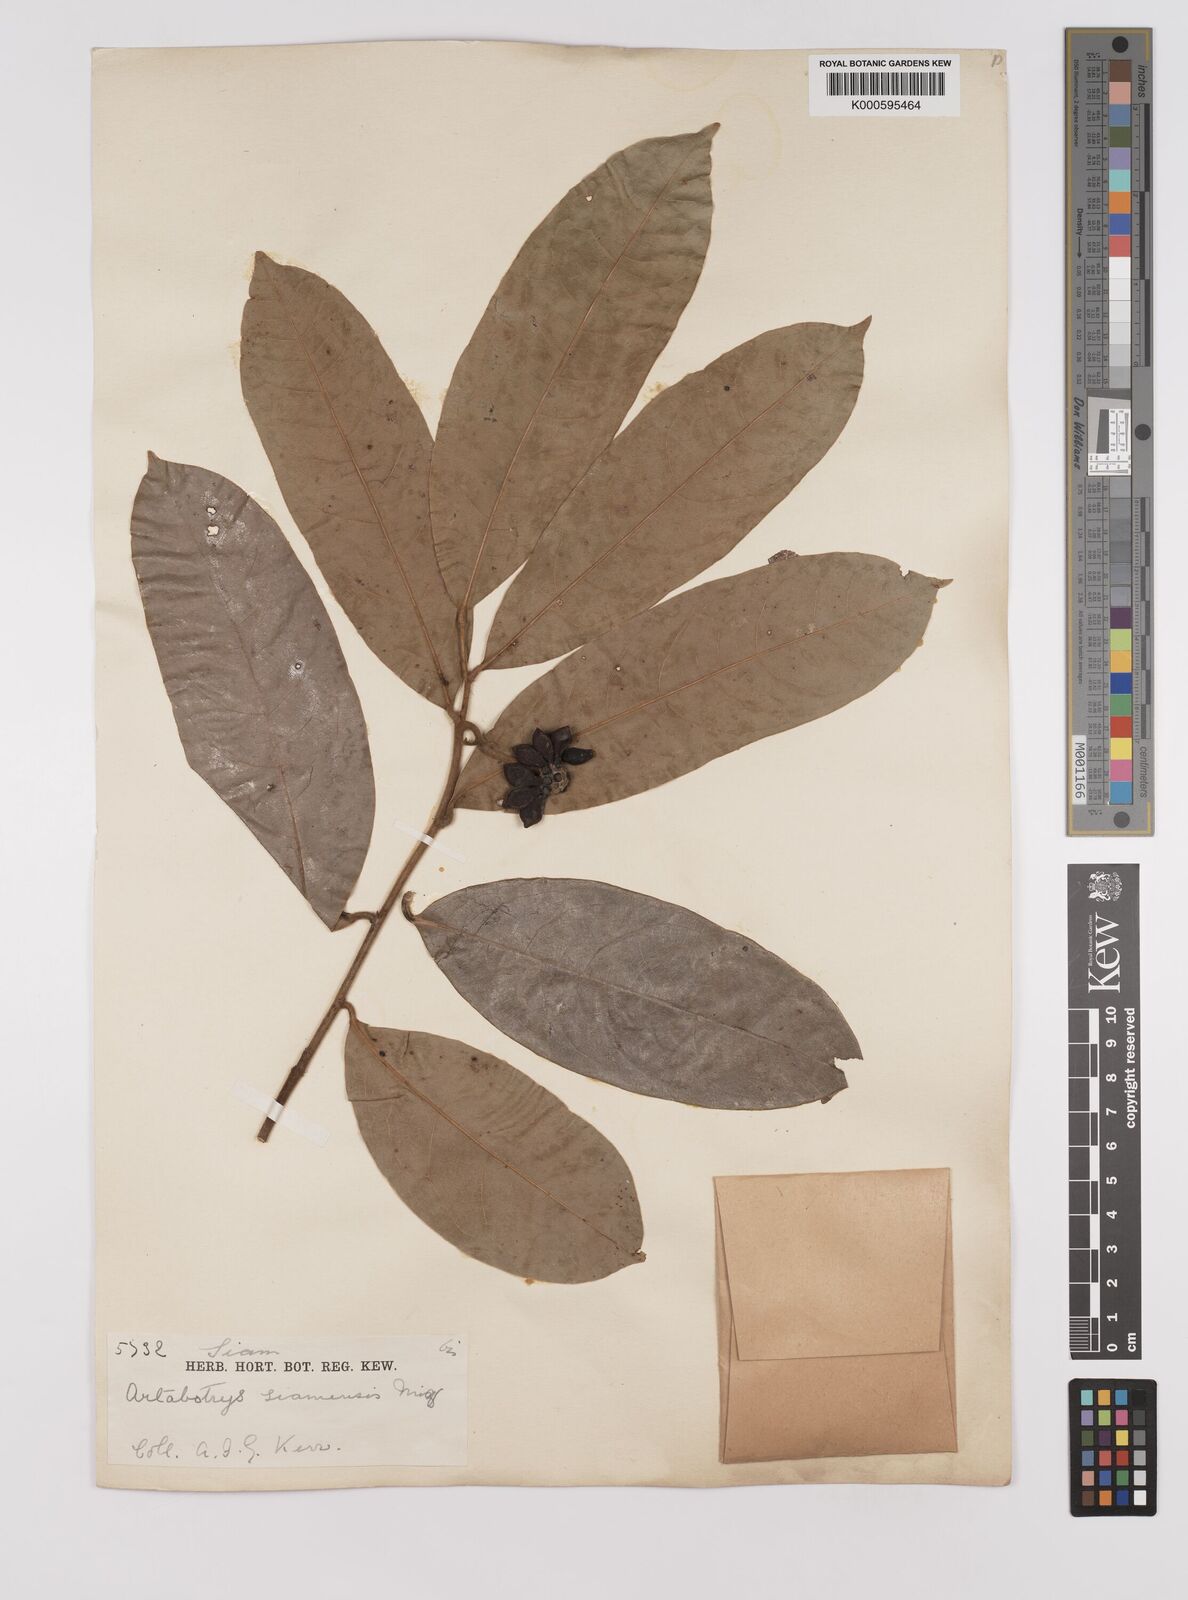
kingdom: Plantae
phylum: Tracheophyta
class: Magnoliopsida
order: Magnoliales
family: Annonaceae
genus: Artabotrys
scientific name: Artabotrys siamensis
